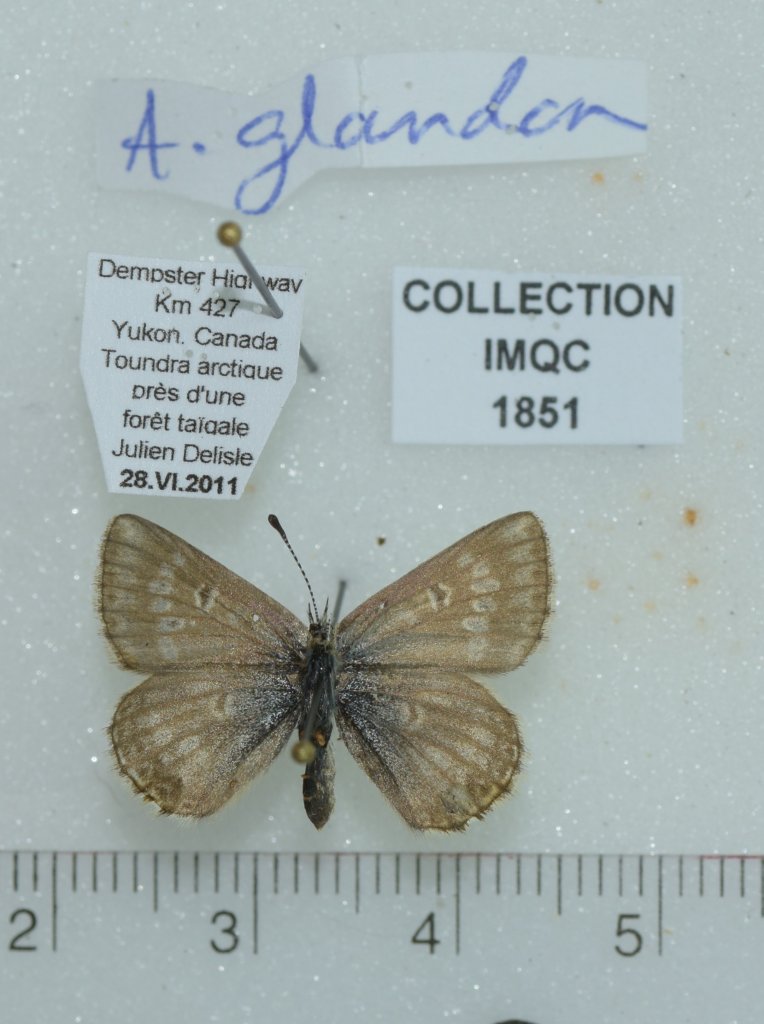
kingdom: Animalia
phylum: Arthropoda
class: Insecta
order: Lepidoptera
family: Lycaenidae
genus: Agriades
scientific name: Agriades glandon
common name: Arctic Blue
